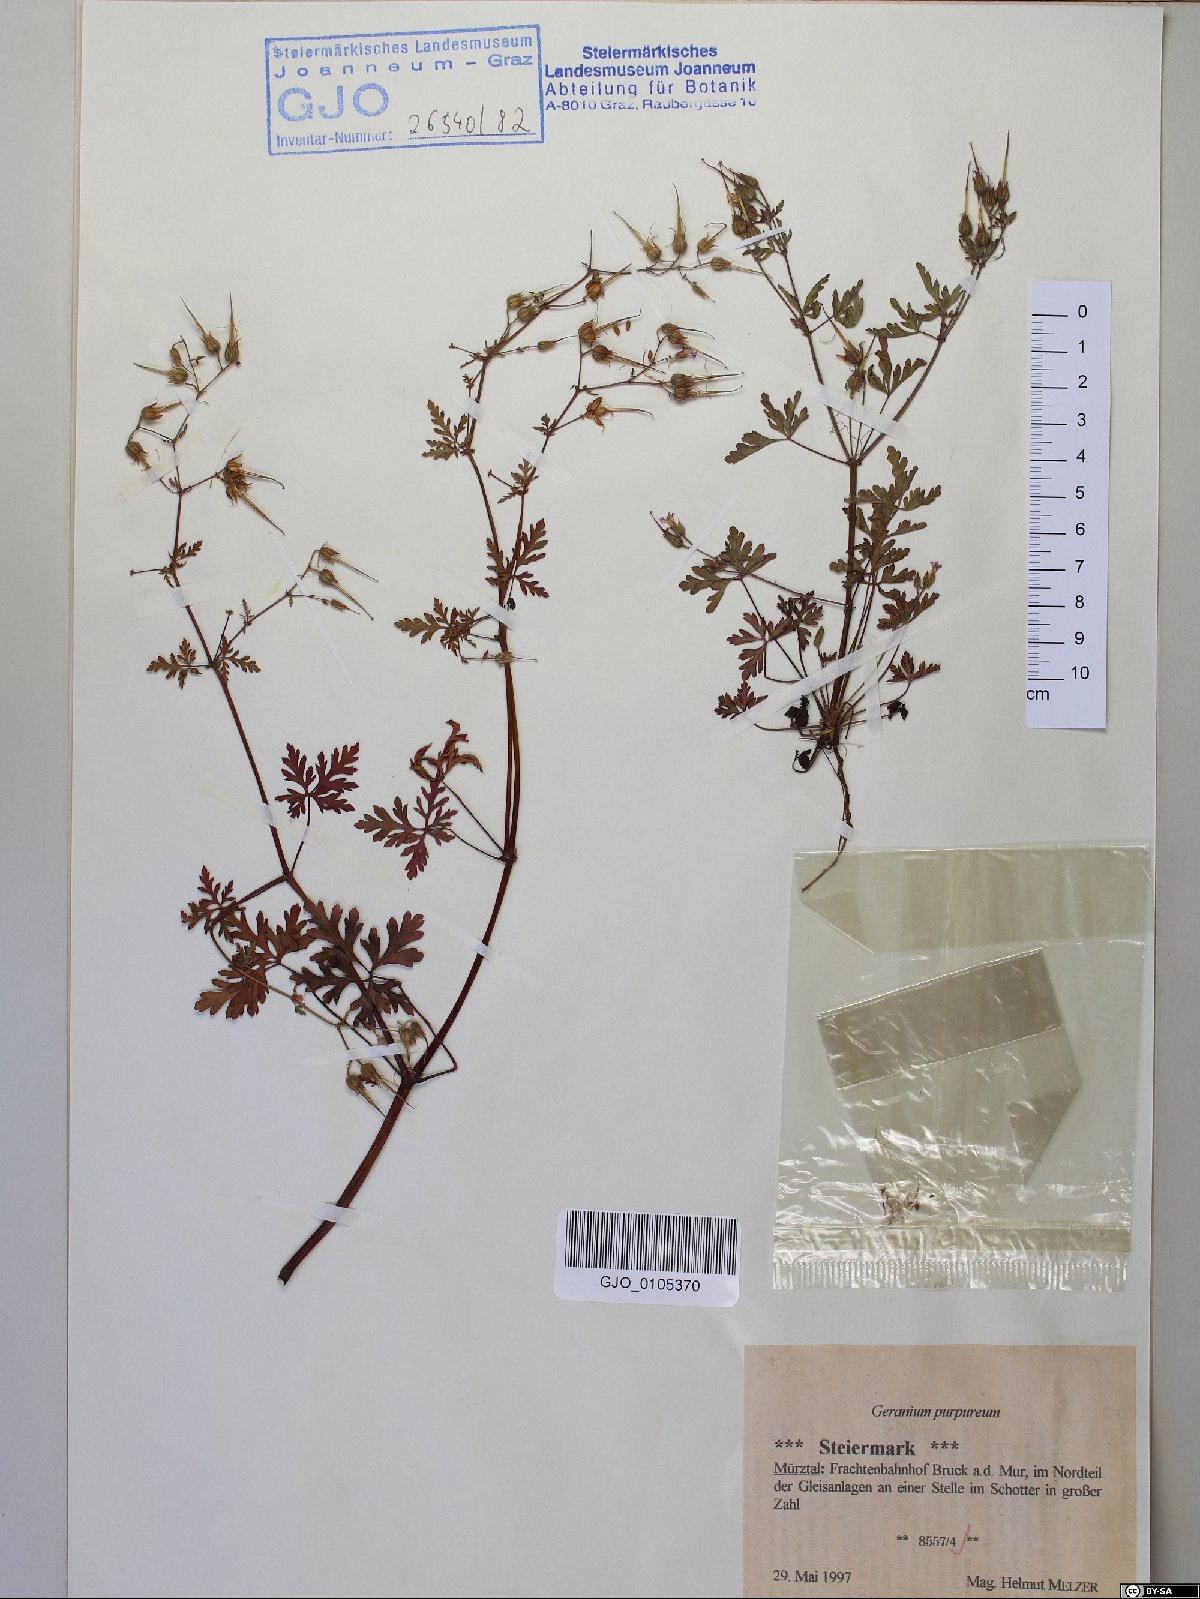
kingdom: Plantae
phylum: Tracheophyta
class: Magnoliopsida
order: Geraniales
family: Geraniaceae
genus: Geranium
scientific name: Geranium purpureum
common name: Little-robin
